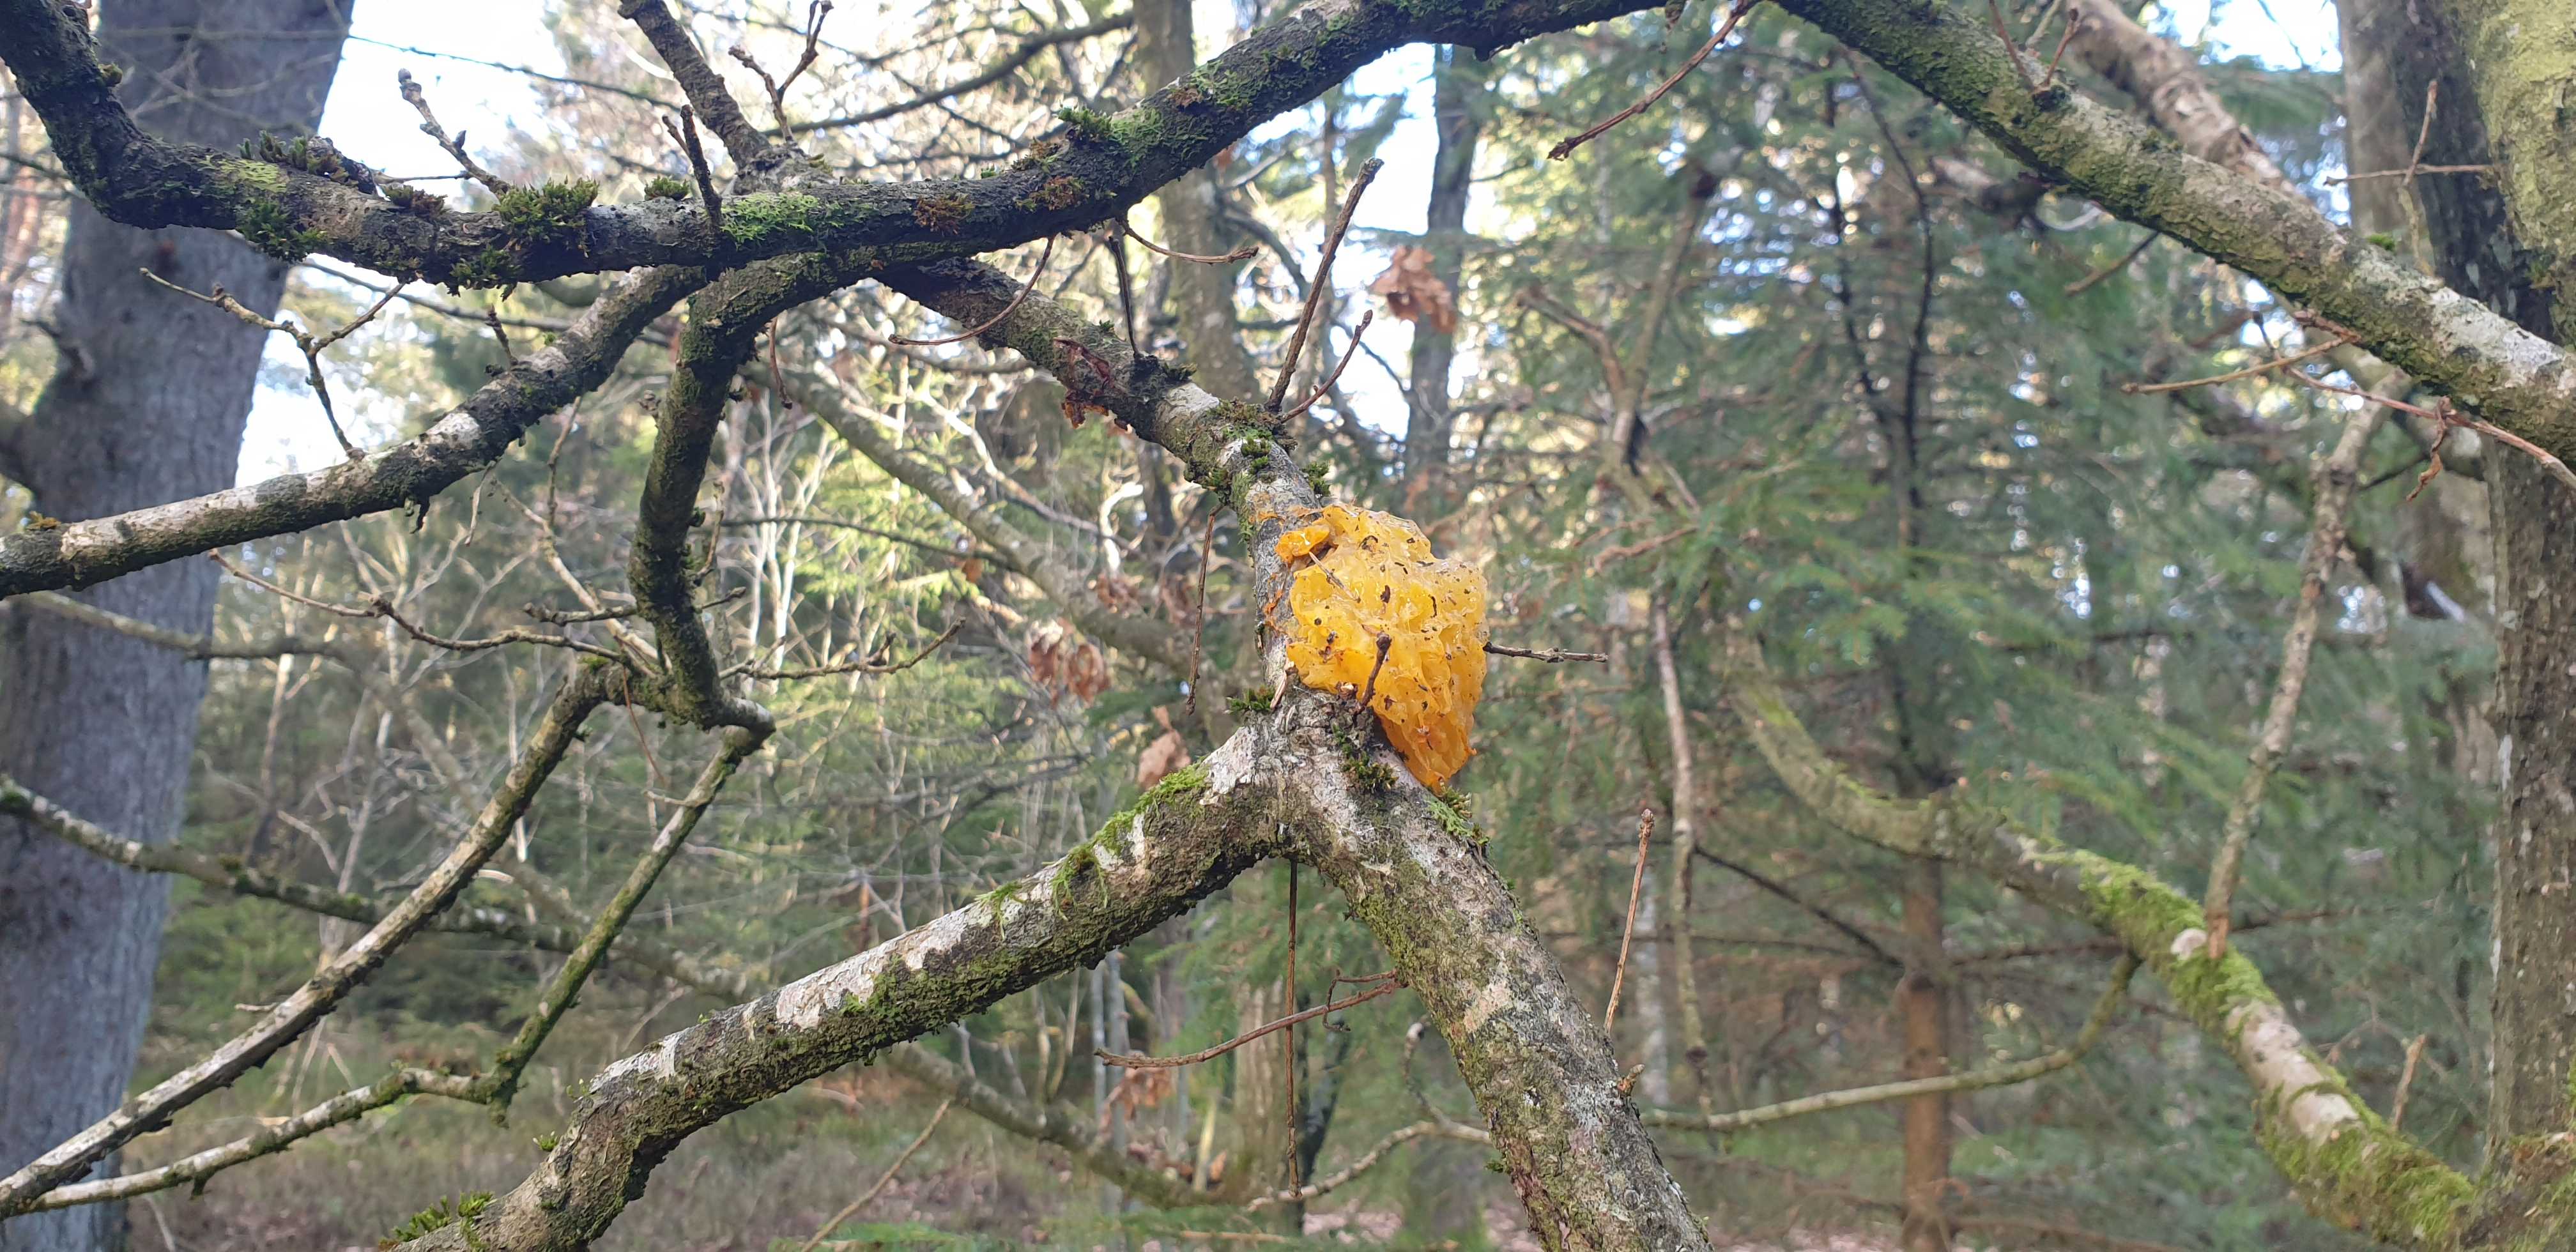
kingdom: Fungi
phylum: Basidiomycota
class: Tremellomycetes
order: Tremellales
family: Tremellaceae
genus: Tremella
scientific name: Tremella mesenterica
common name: gul bævresvamp
